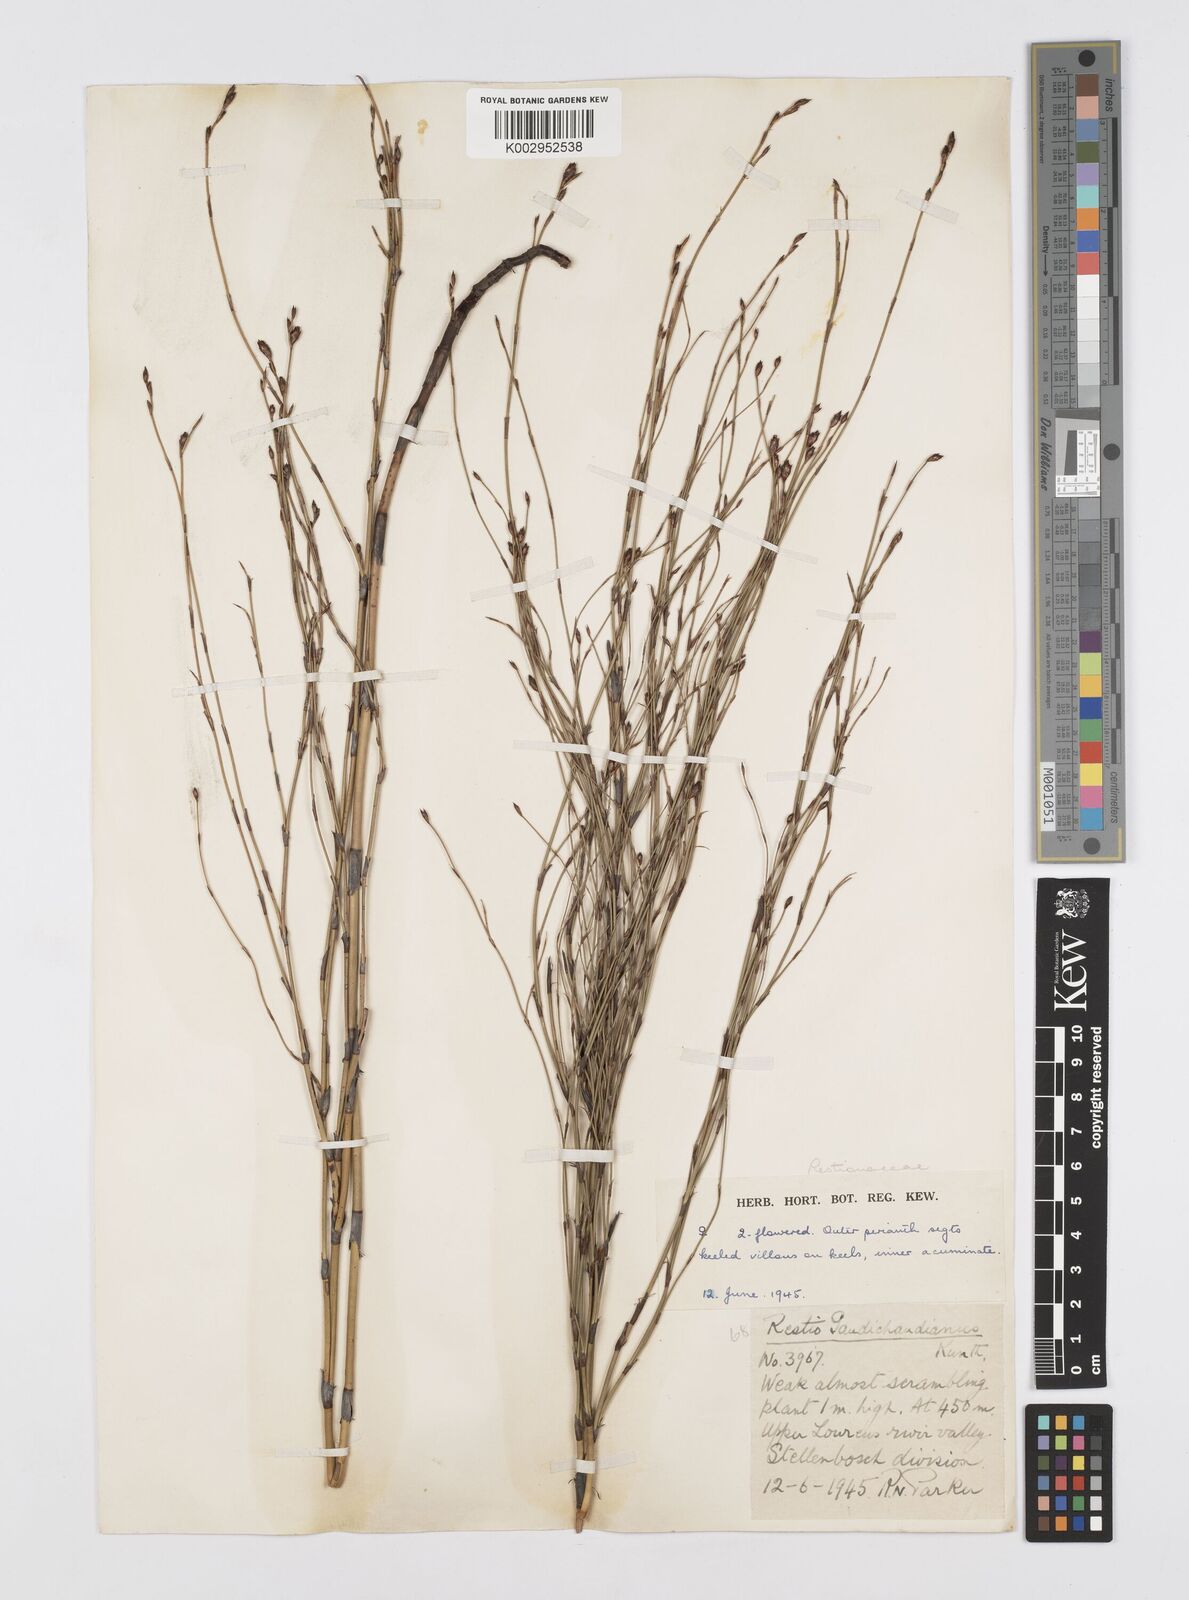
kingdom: Plantae
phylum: Tracheophyta
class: Liliopsida
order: Poales
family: Restionaceae
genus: Restio
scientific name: Restio gaudichaudianus
